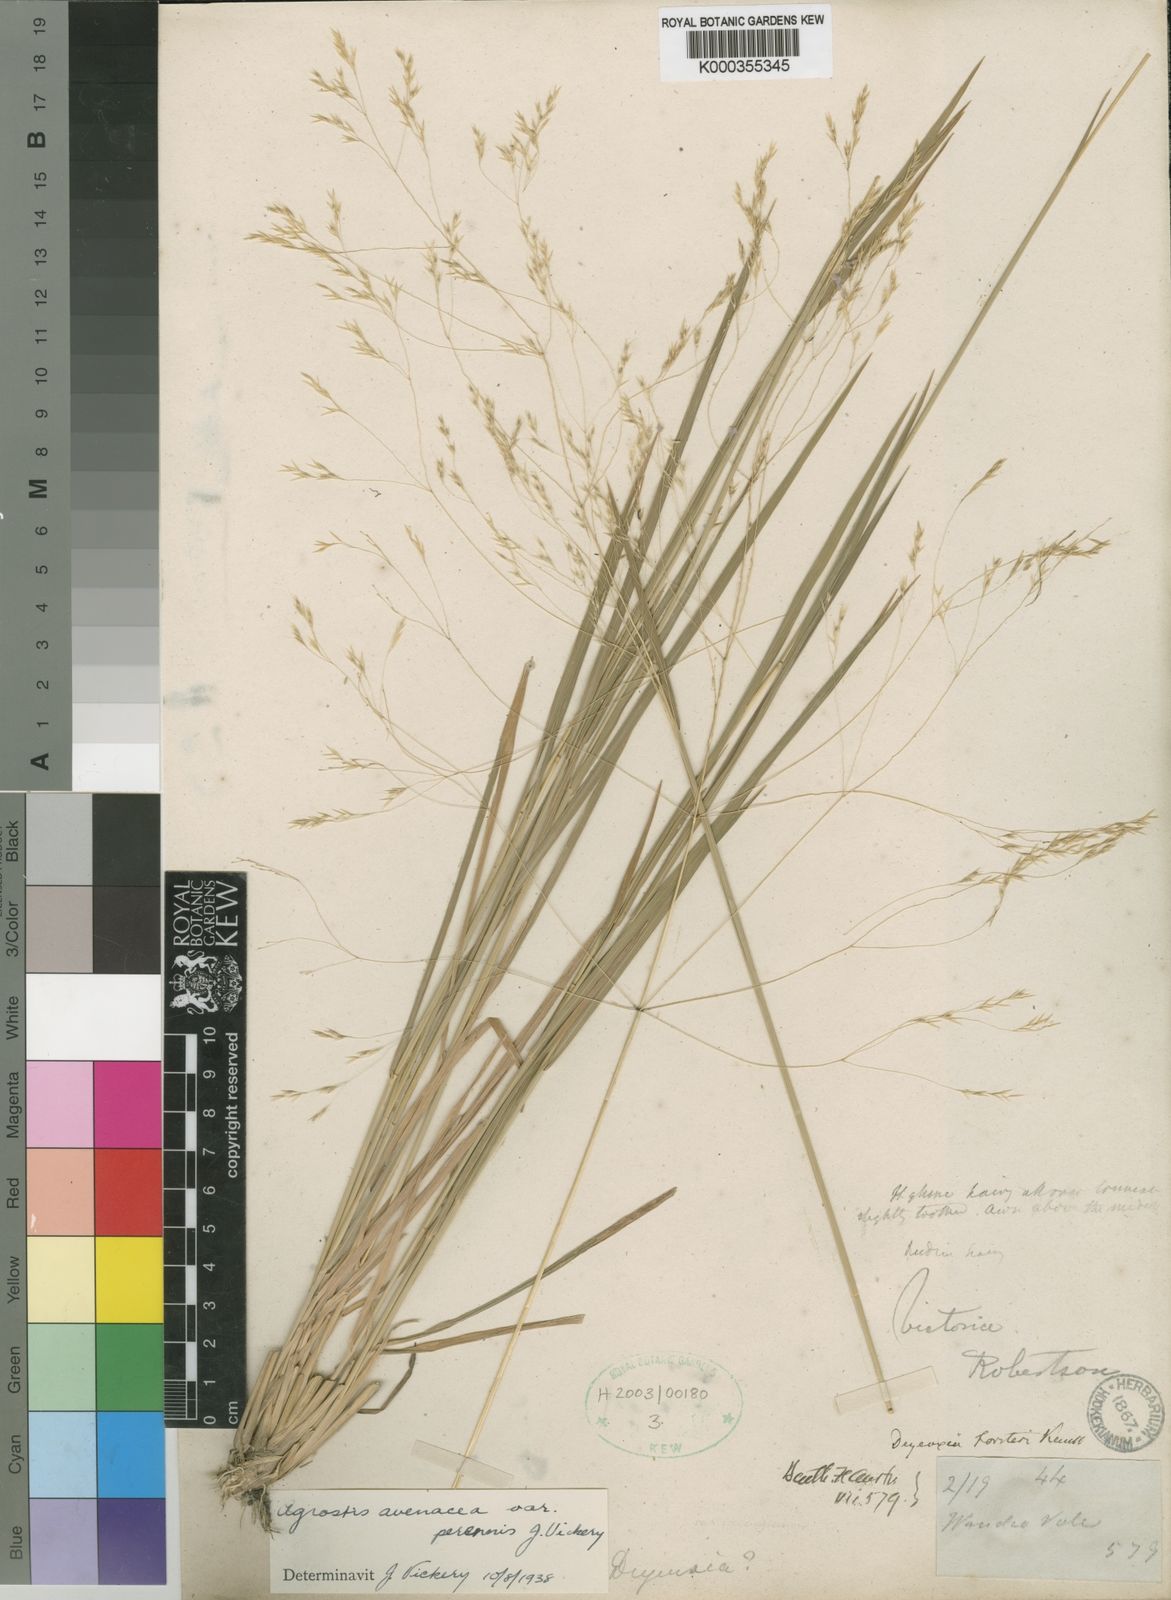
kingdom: Plantae
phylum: Tracheophyta
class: Liliopsida
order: Poales
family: Poaceae
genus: Lachnagrostis
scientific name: Lachnagrostis filiformis
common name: Bentgrass
